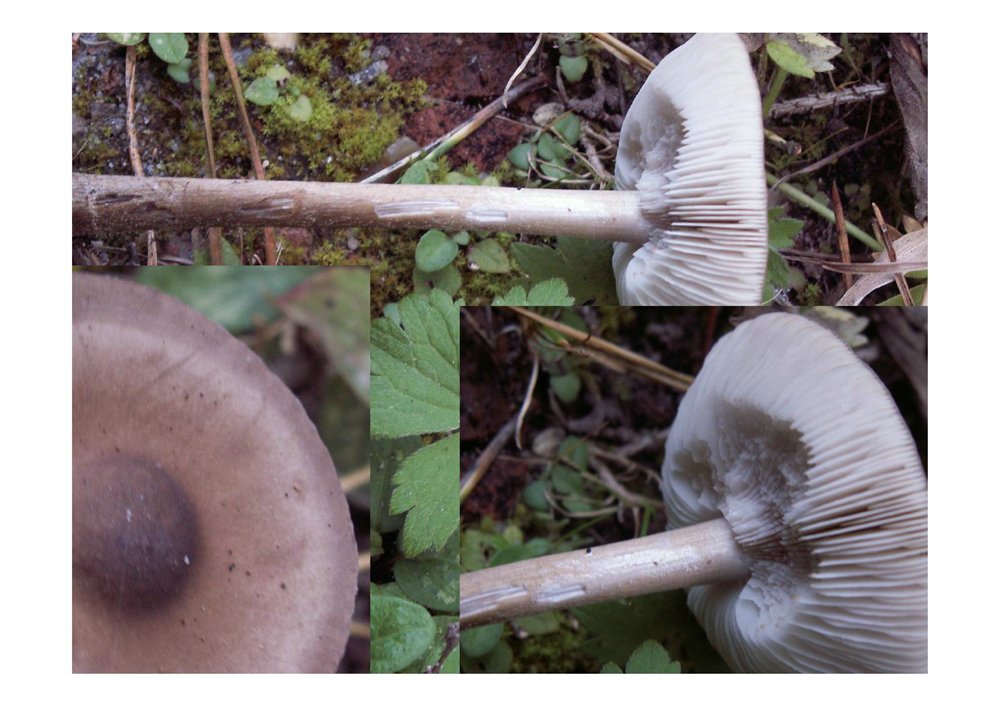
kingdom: Fungi
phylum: Basidiomycota
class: Agaricomycetes
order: Agaricales
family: Tricholomataceae
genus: Melanoleuca
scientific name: Melanoleuca rasilis
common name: eng-munkehat
